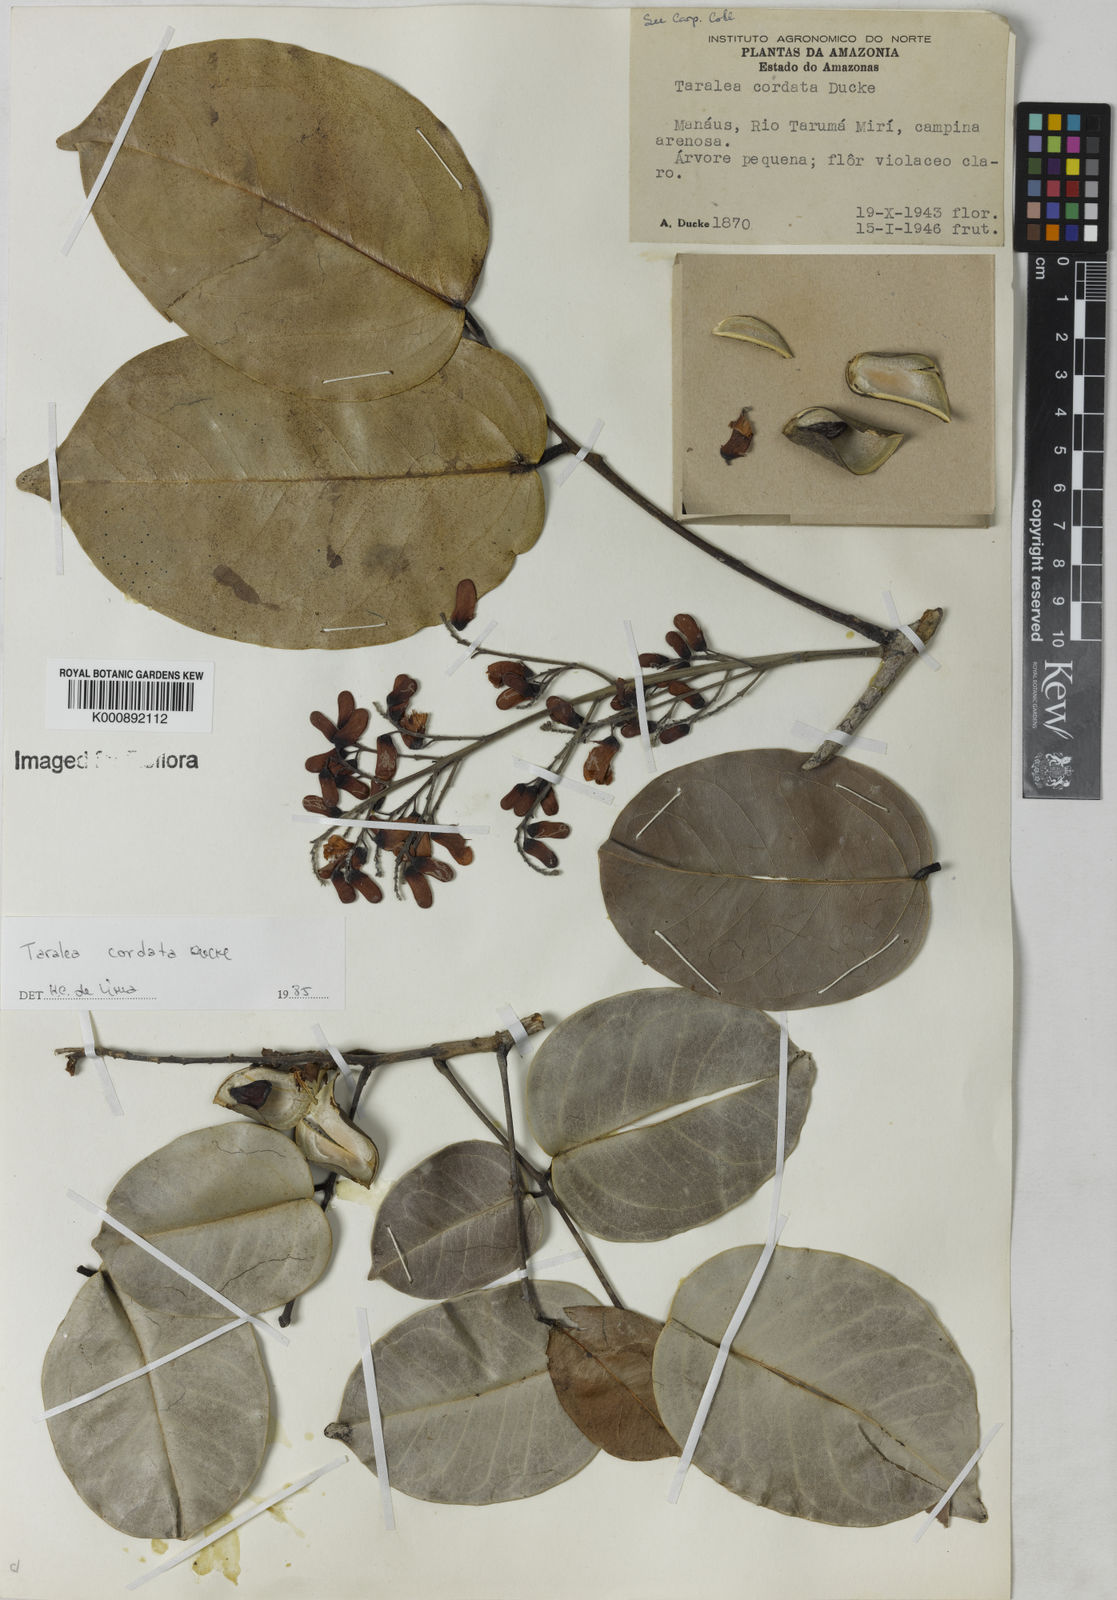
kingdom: Plantae
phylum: Tracheophyta
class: Magnoliopsida
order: Fabales
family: Fabaceae
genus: Taralea
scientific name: Taralea cordata
